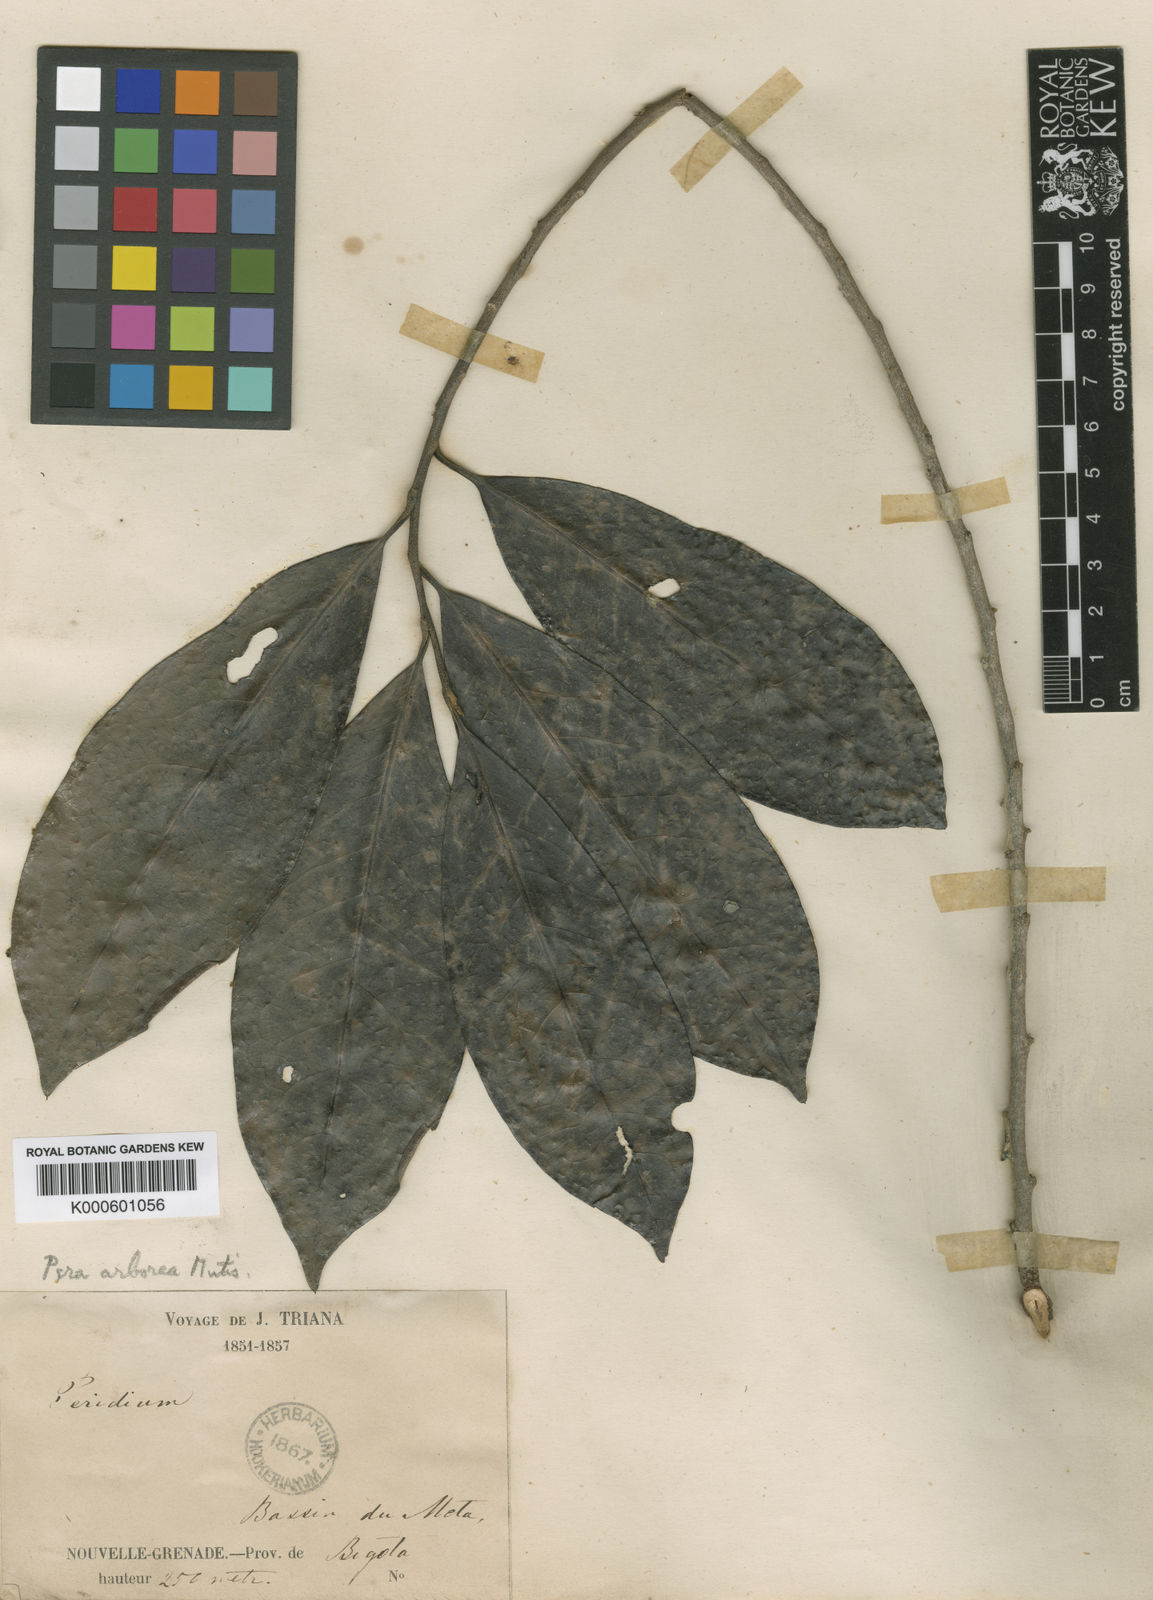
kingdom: Plantae
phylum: Tracheophyta
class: Magnoliopsida
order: Malpighiales
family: Peraceae
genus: Pera
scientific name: Pera arborea
